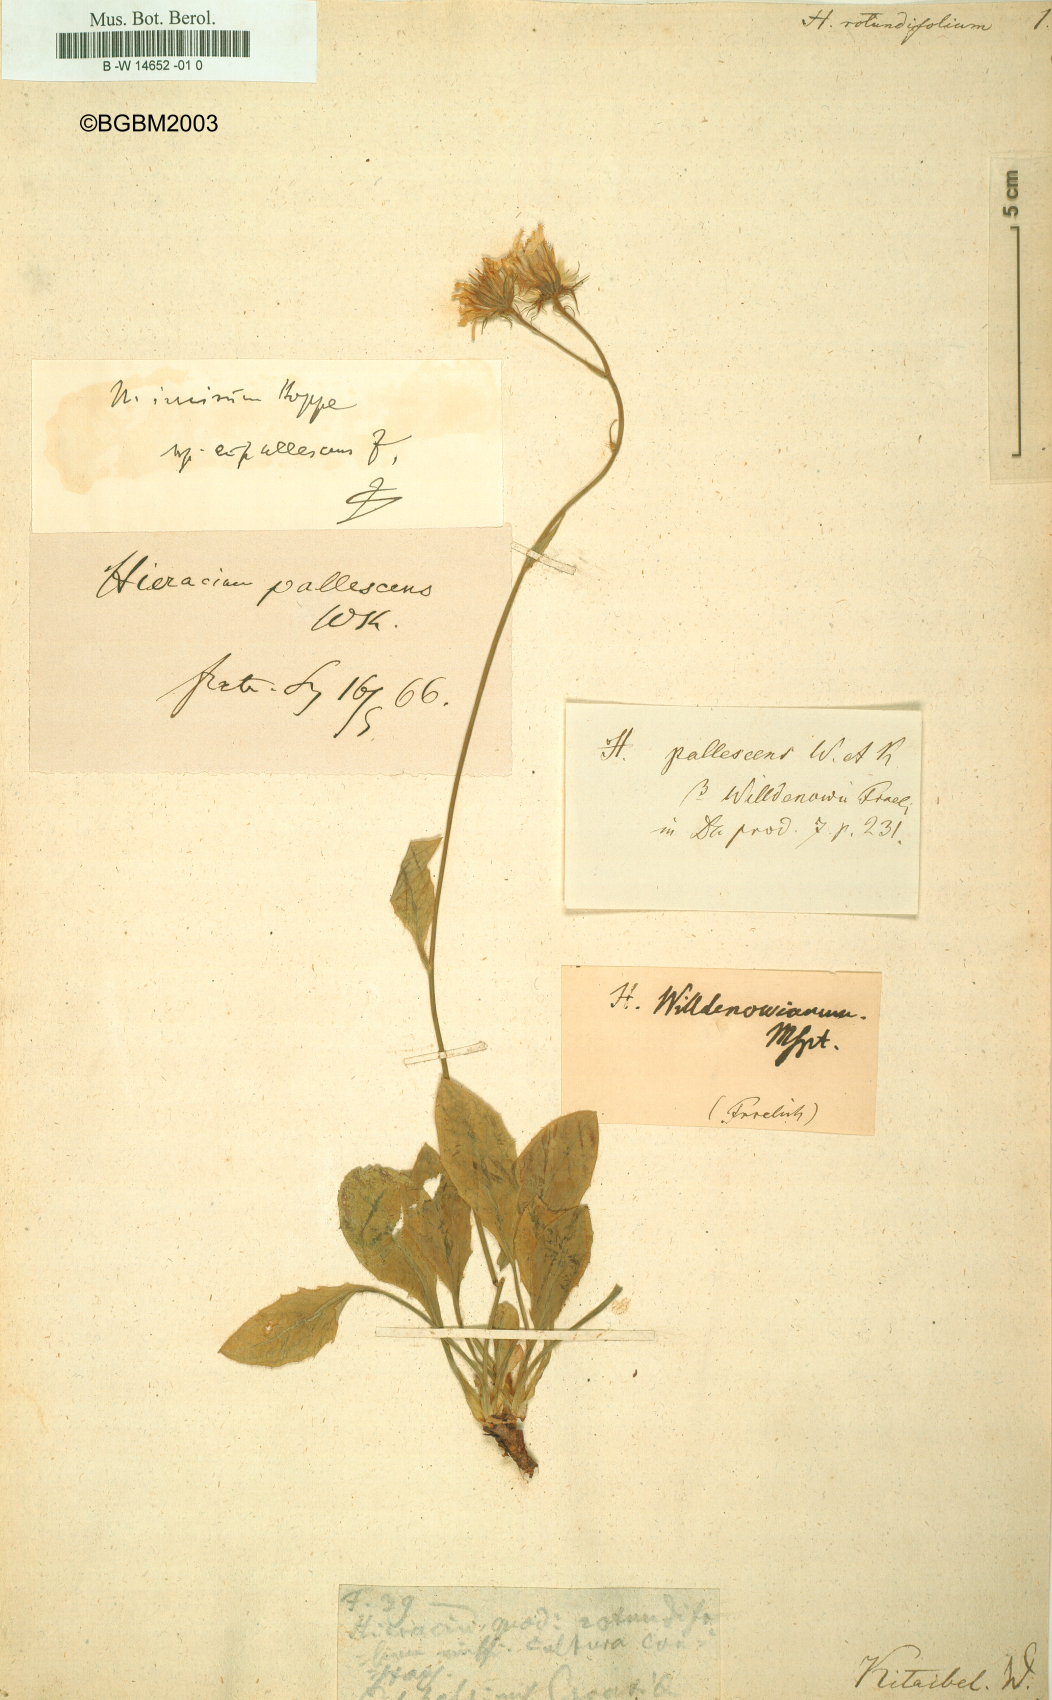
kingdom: Plantae
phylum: Tracheophyta
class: Magnoliopsida
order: Asterales
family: Asteraceae
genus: Hieracium
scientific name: Hieracium rotundifolium
